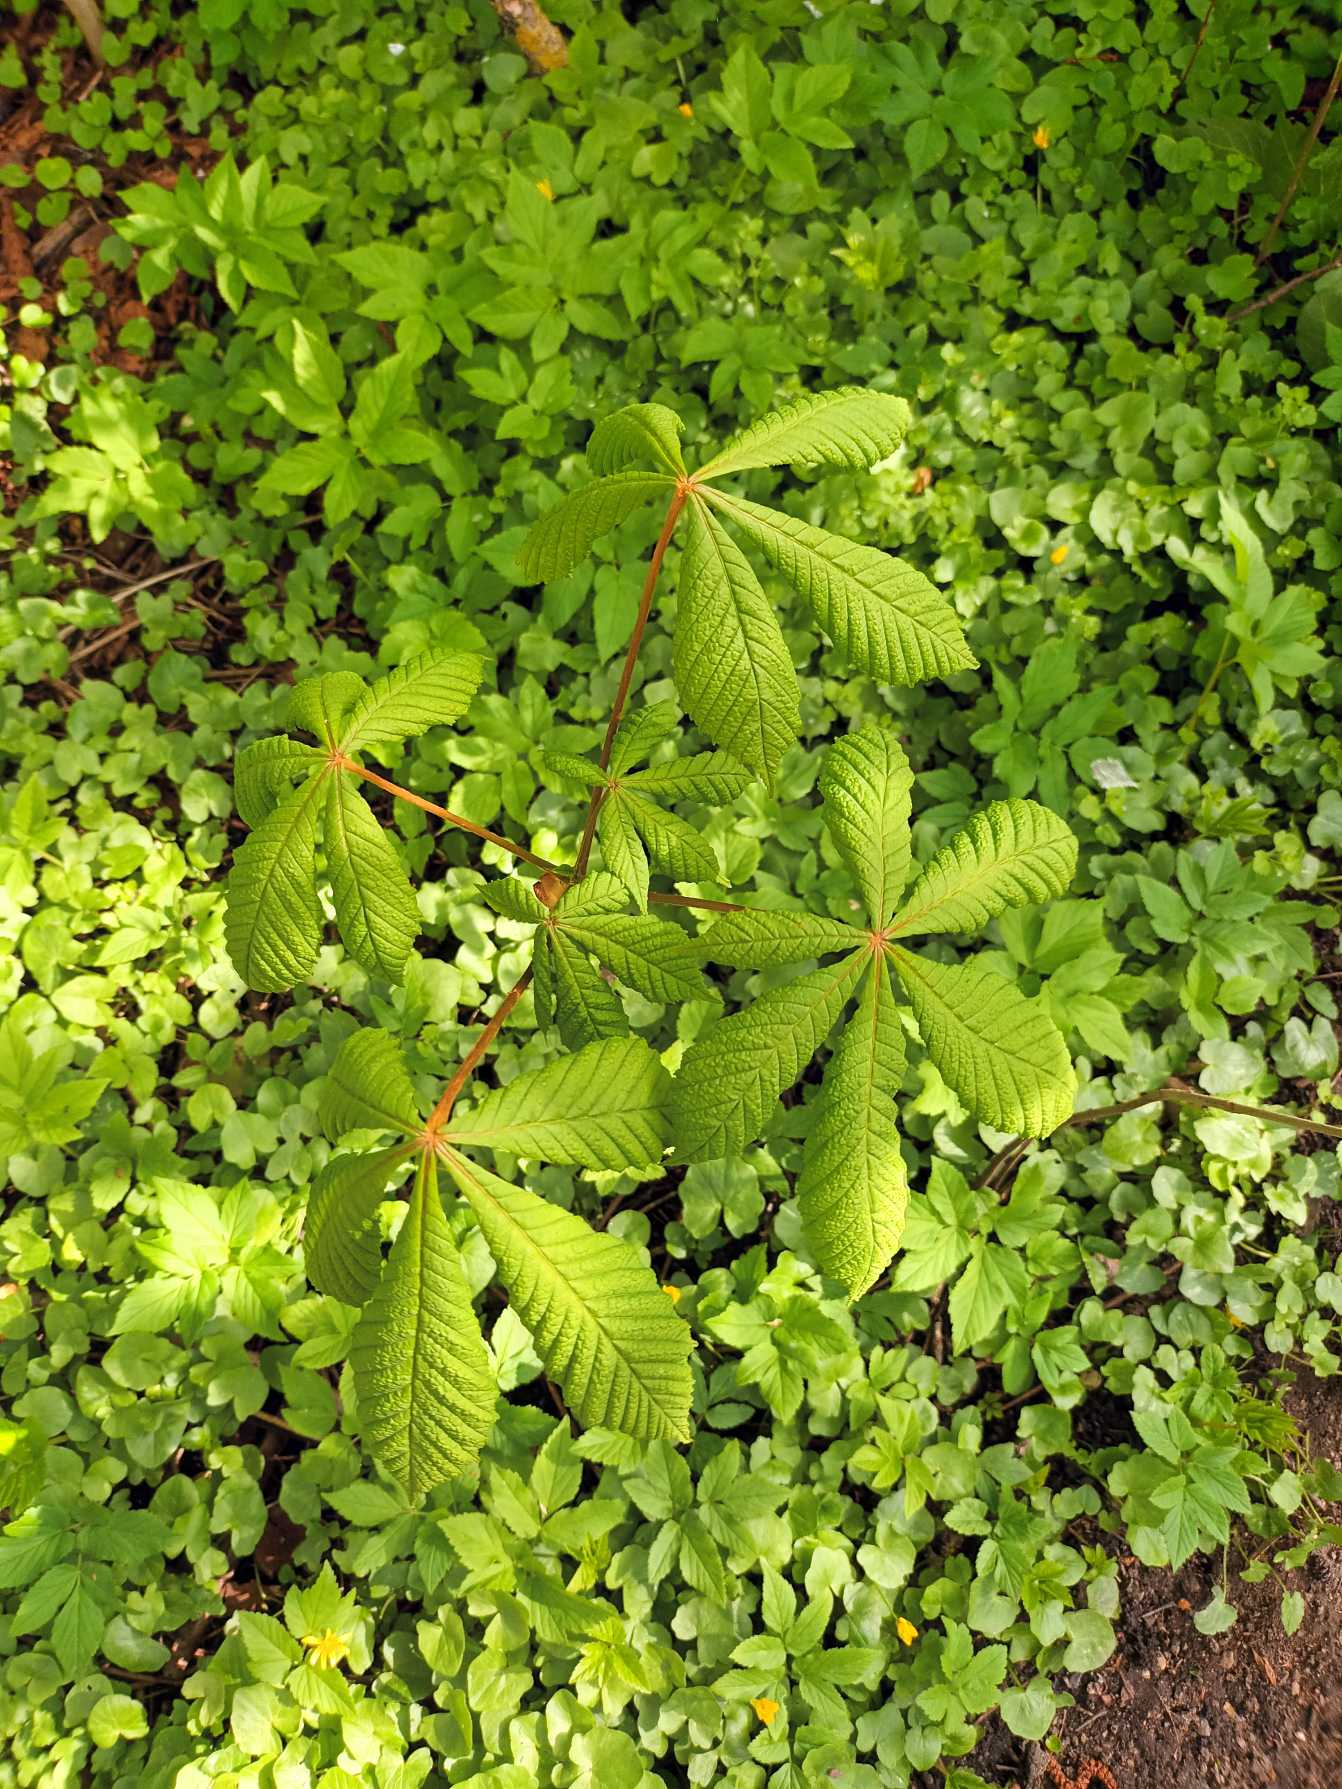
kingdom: Plantae
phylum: Tracheophyta
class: Magnoliopsida
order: Sapindales
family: Sapindaceae
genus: Aesculus
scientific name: Aesculus hippocastanum
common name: Hestekastanie
